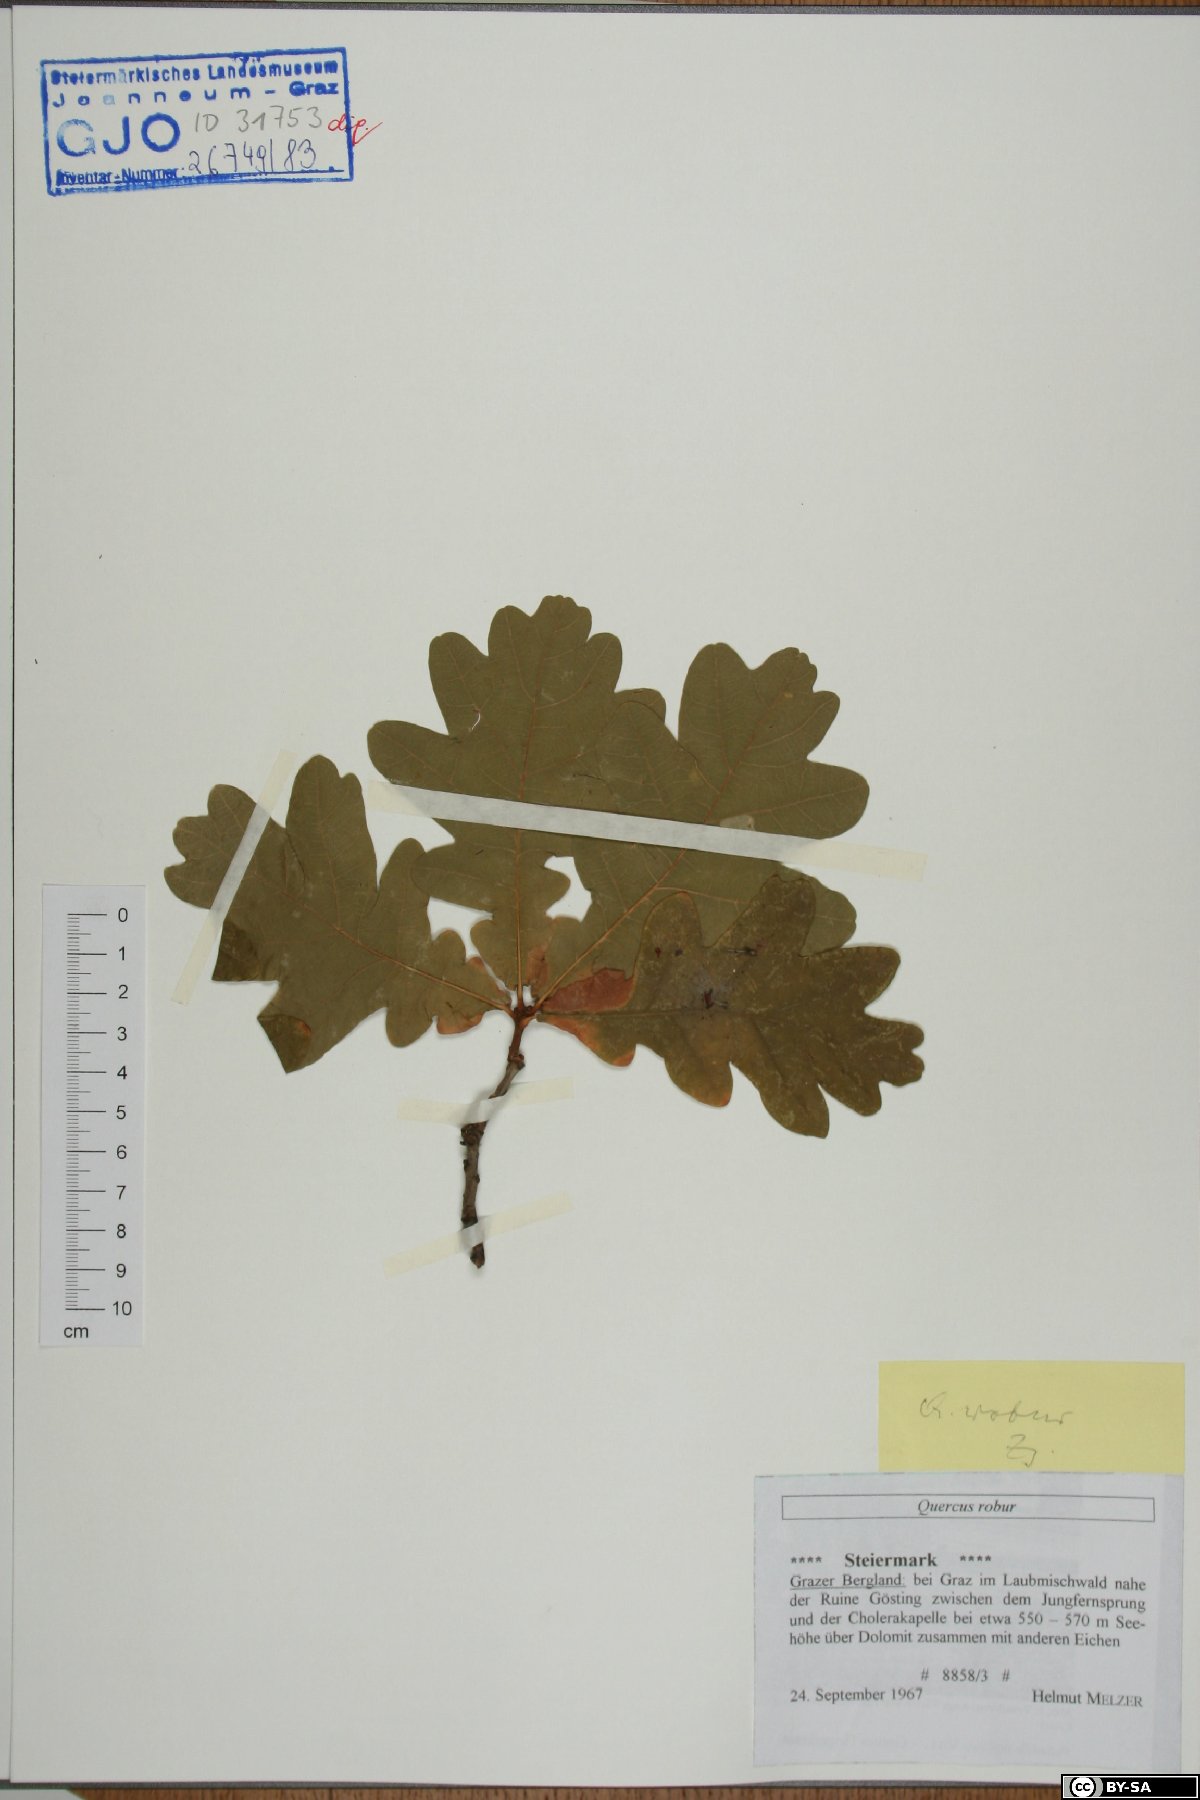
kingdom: Plantae
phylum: Tracheophyta
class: Magnoliopsida
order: Fagales
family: Fagaceae
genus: Quercus
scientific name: Quercus robur
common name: Pedunculate oak
